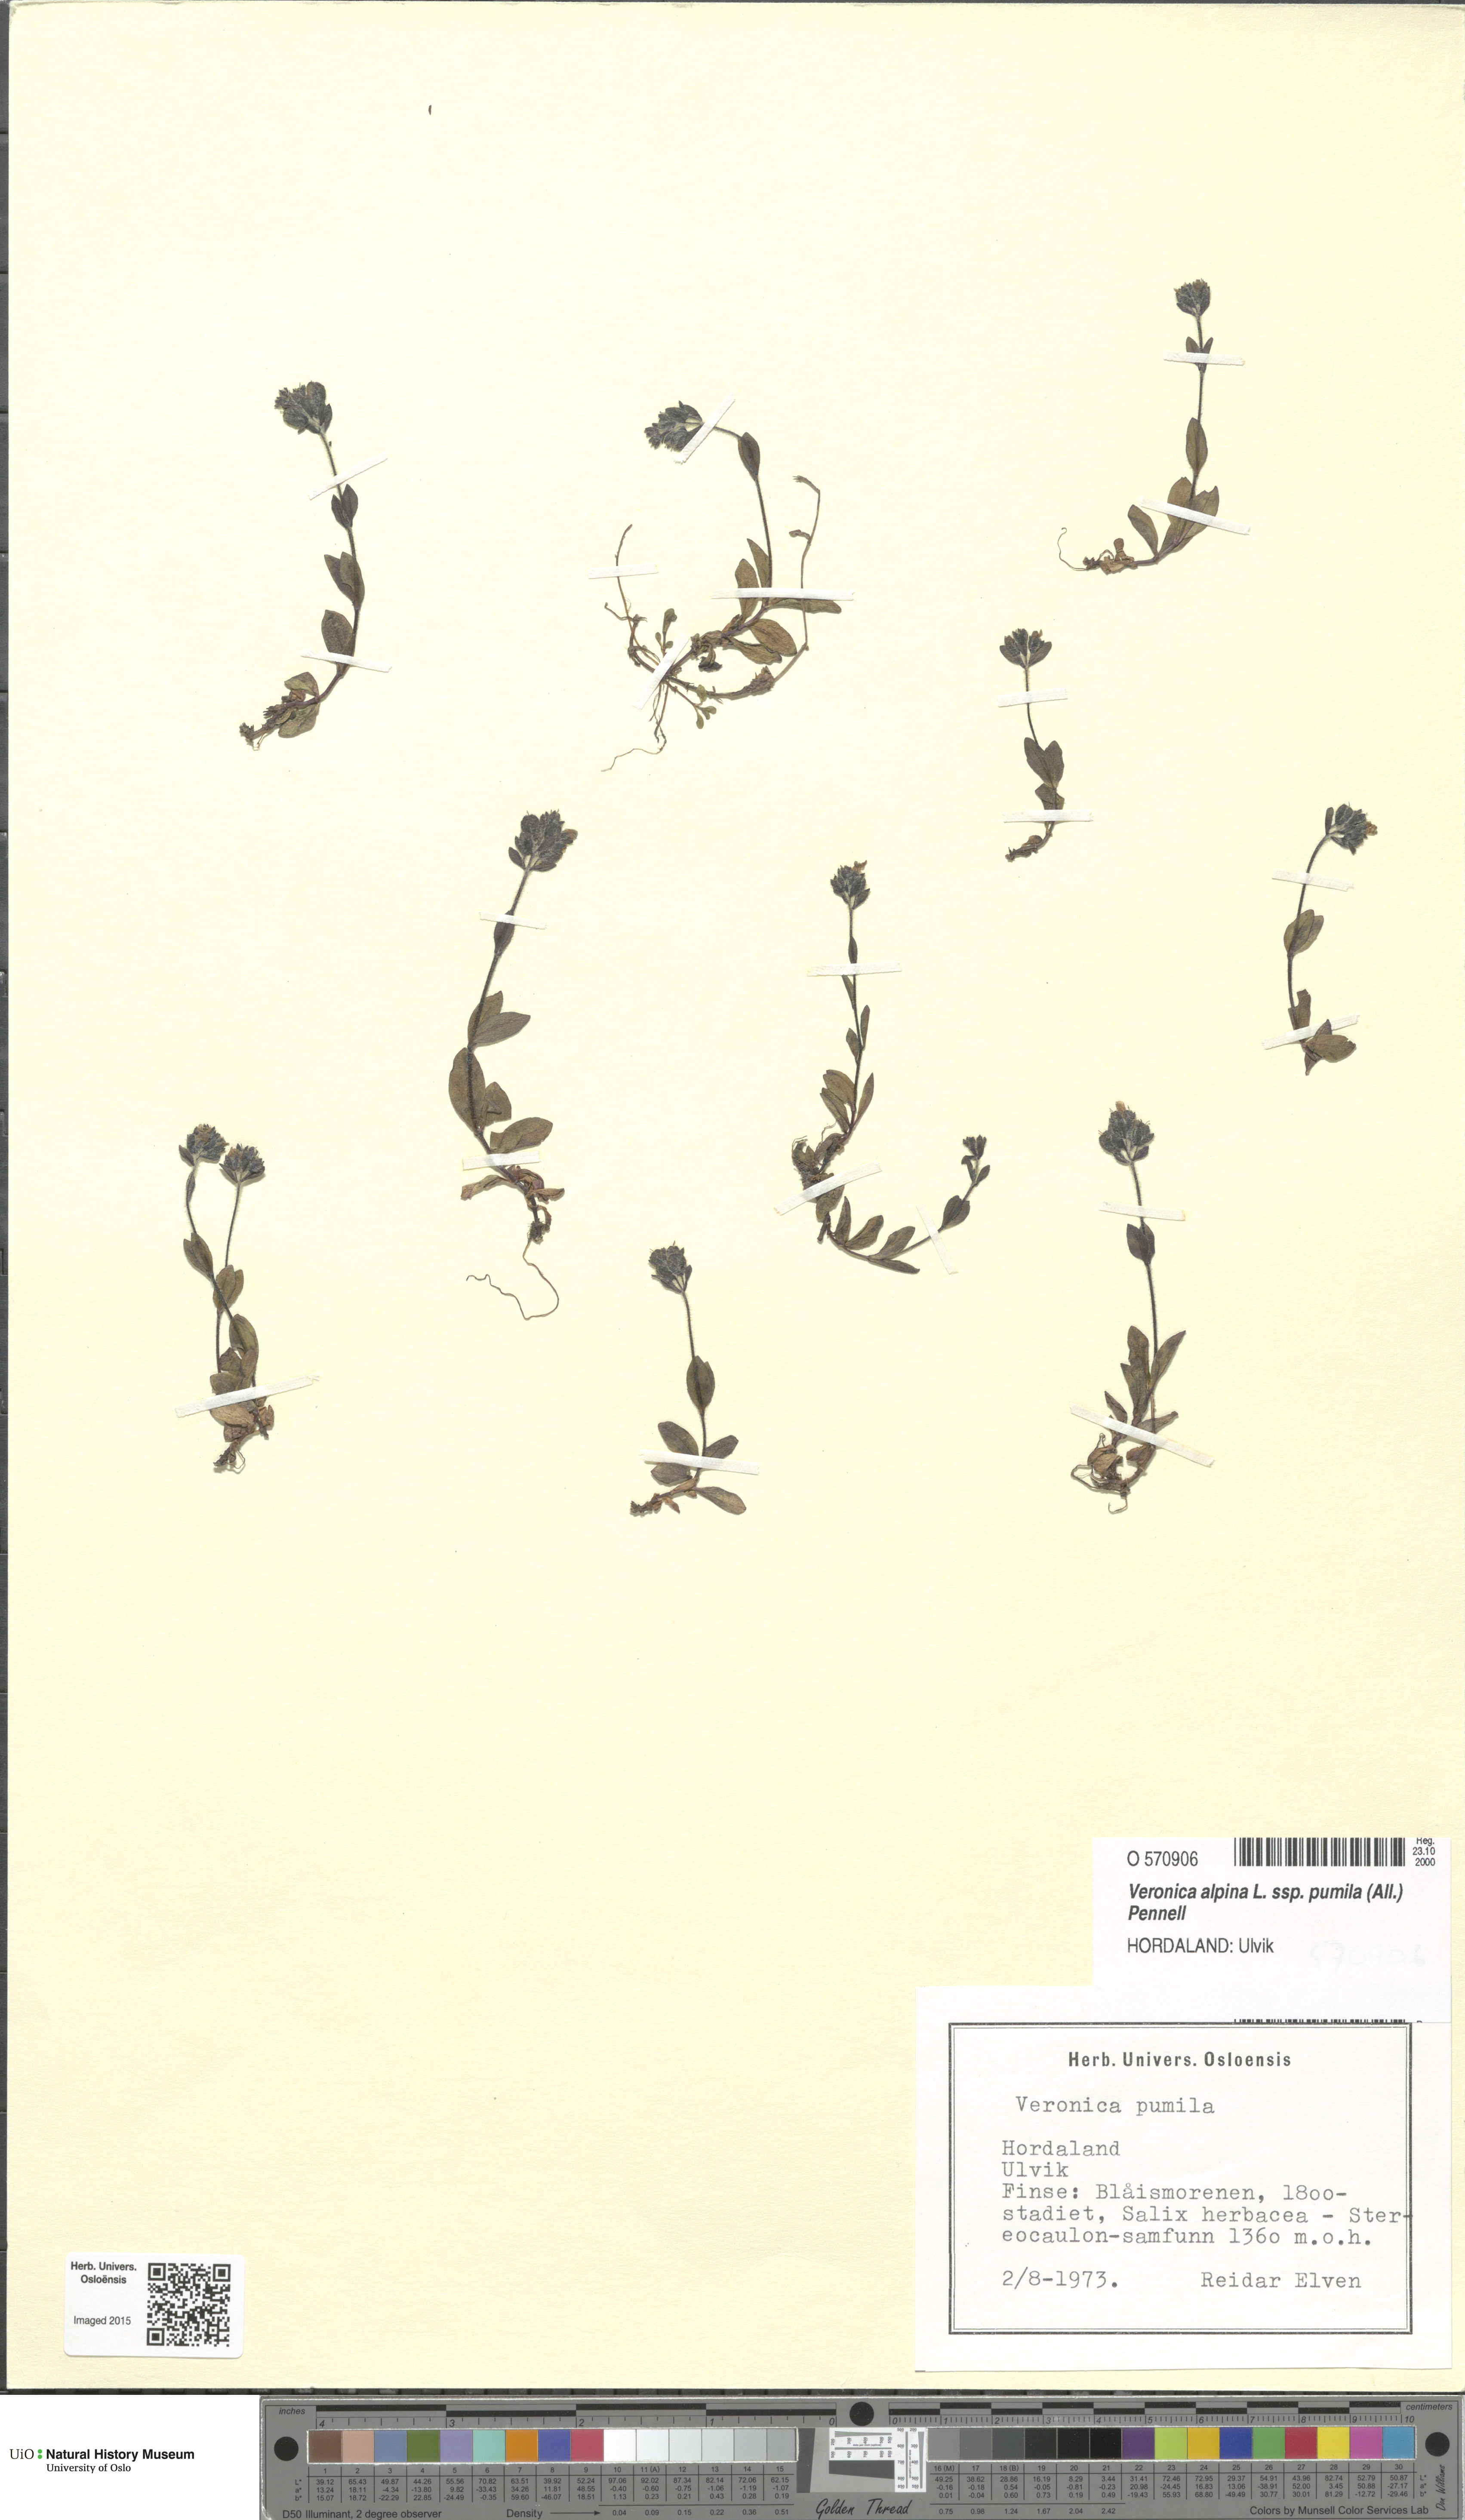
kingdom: Plantae
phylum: Tracheophyta
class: Magnoliopsida
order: Lamiales
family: Plantaginaceae
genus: Veronica
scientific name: Veronica alpina
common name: Alpine speedwell
